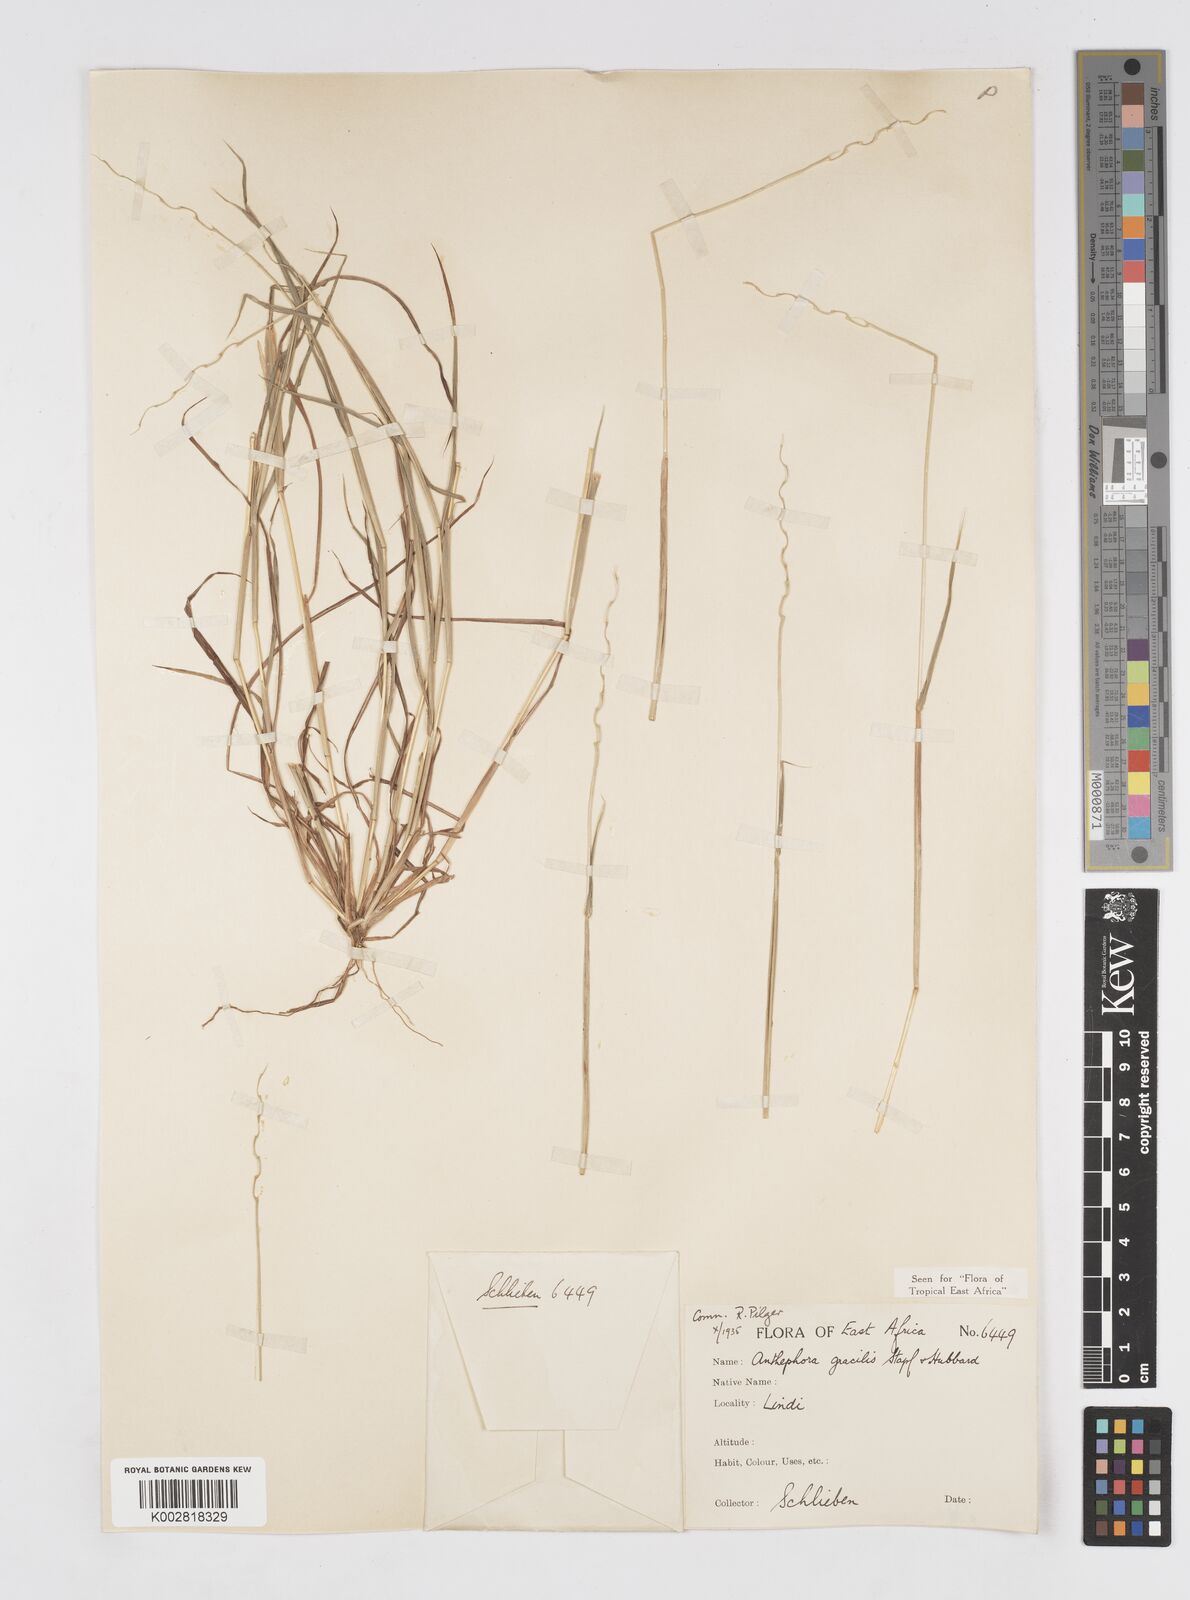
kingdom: Plantae
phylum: Tracheophyta
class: Liliopsida
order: Poales
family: Poaceae
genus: Anthephora
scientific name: Anthephora truncata
